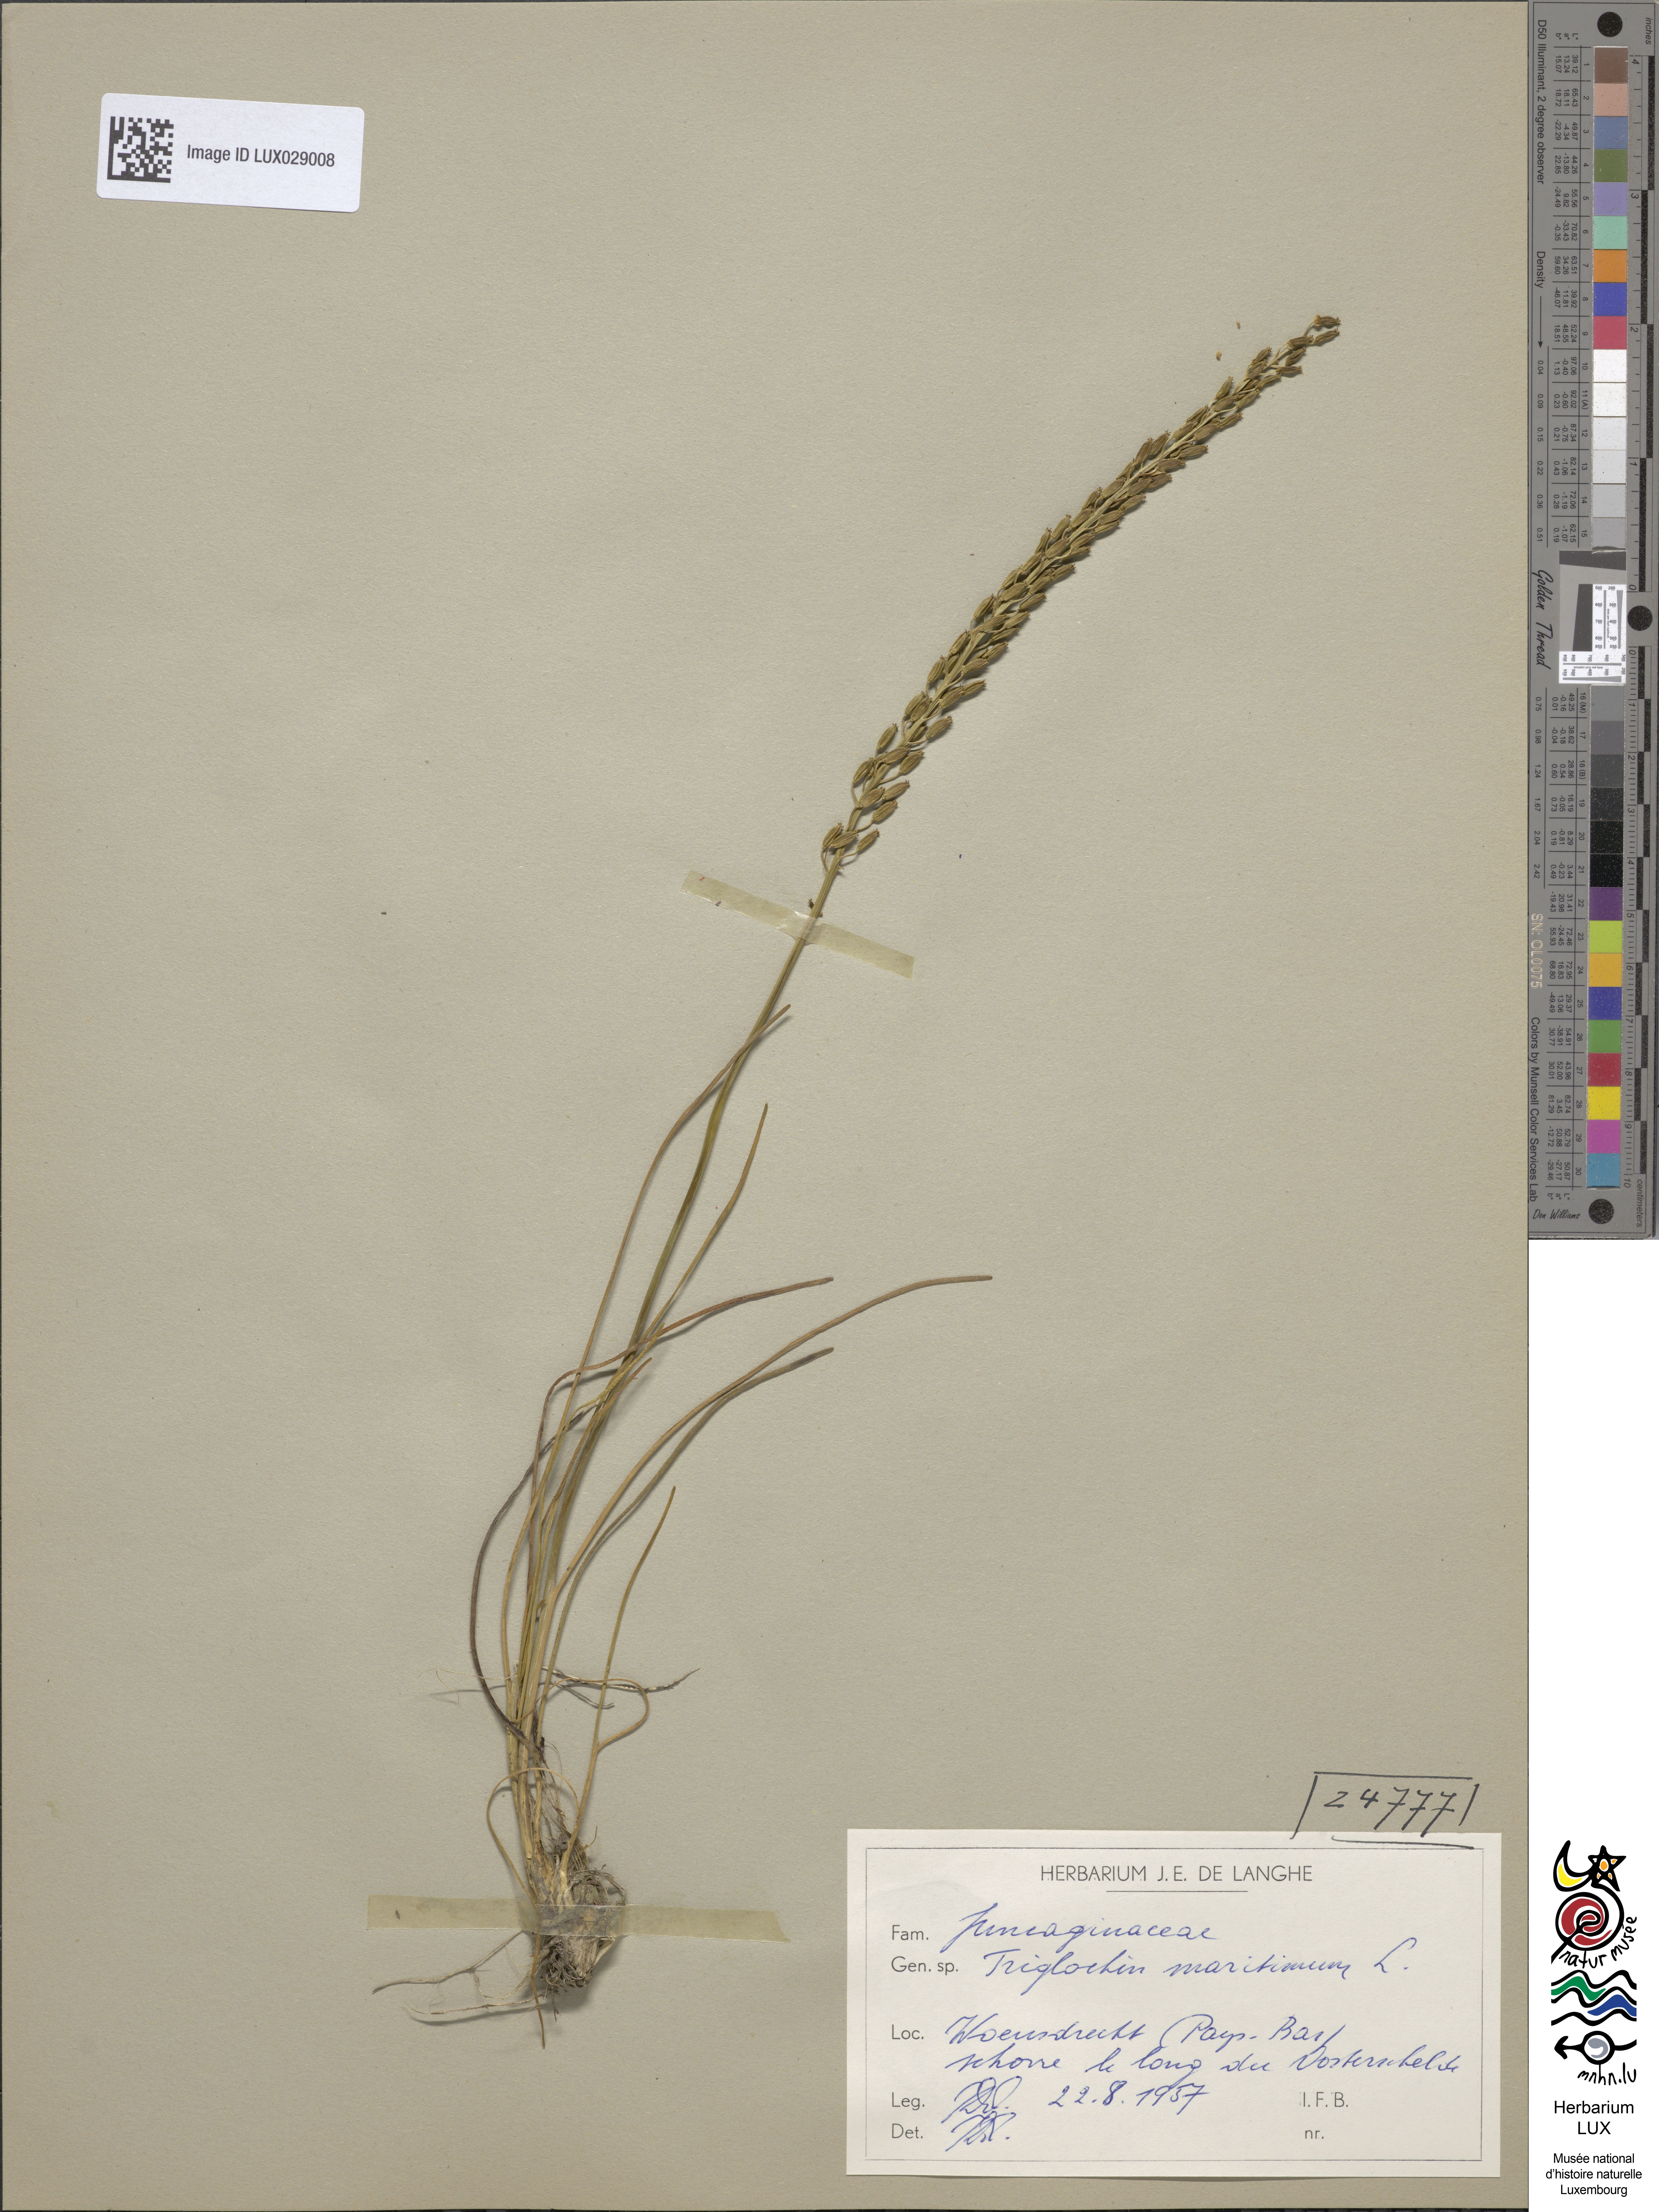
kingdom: Plantae
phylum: Tracheophyta
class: Liliopsida
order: Alismatales
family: Juncaginaceae
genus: Triglochin
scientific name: Triglochin maritima
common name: Sea arrowgrass
